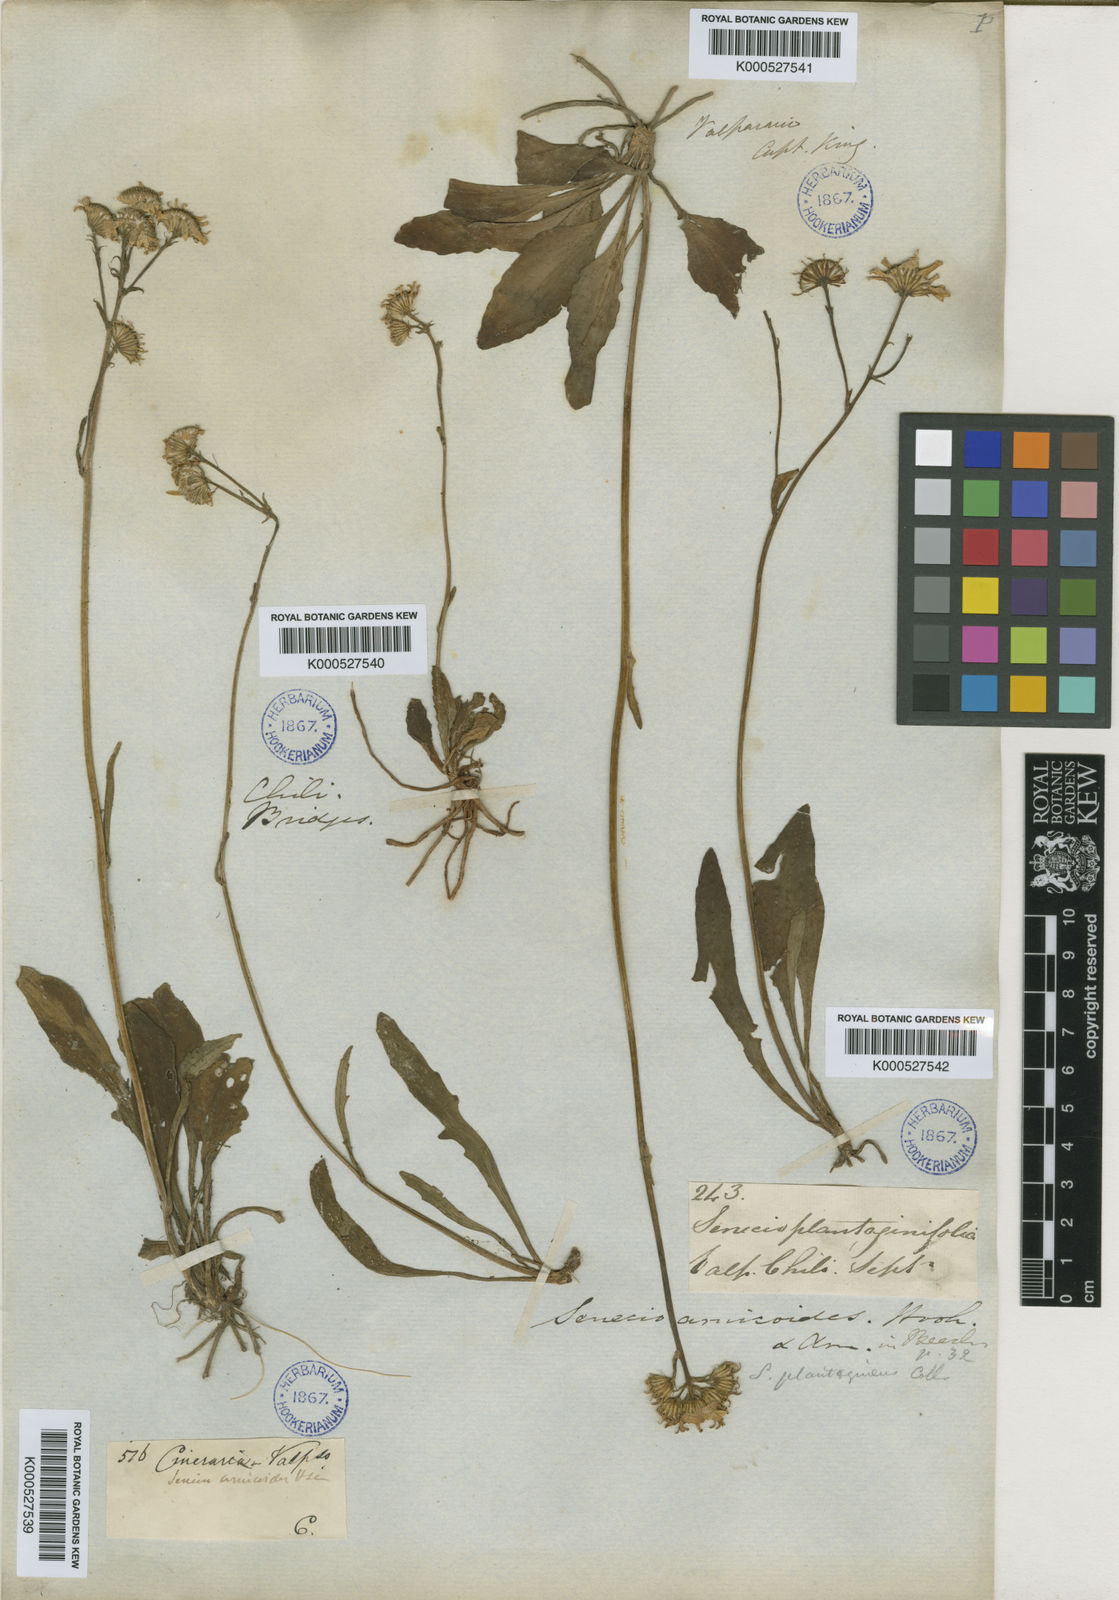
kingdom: Plantae
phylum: Tracheophyta
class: Magnoliopsida
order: Asterales
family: Asteraceae
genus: Senecio
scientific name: Senecio
